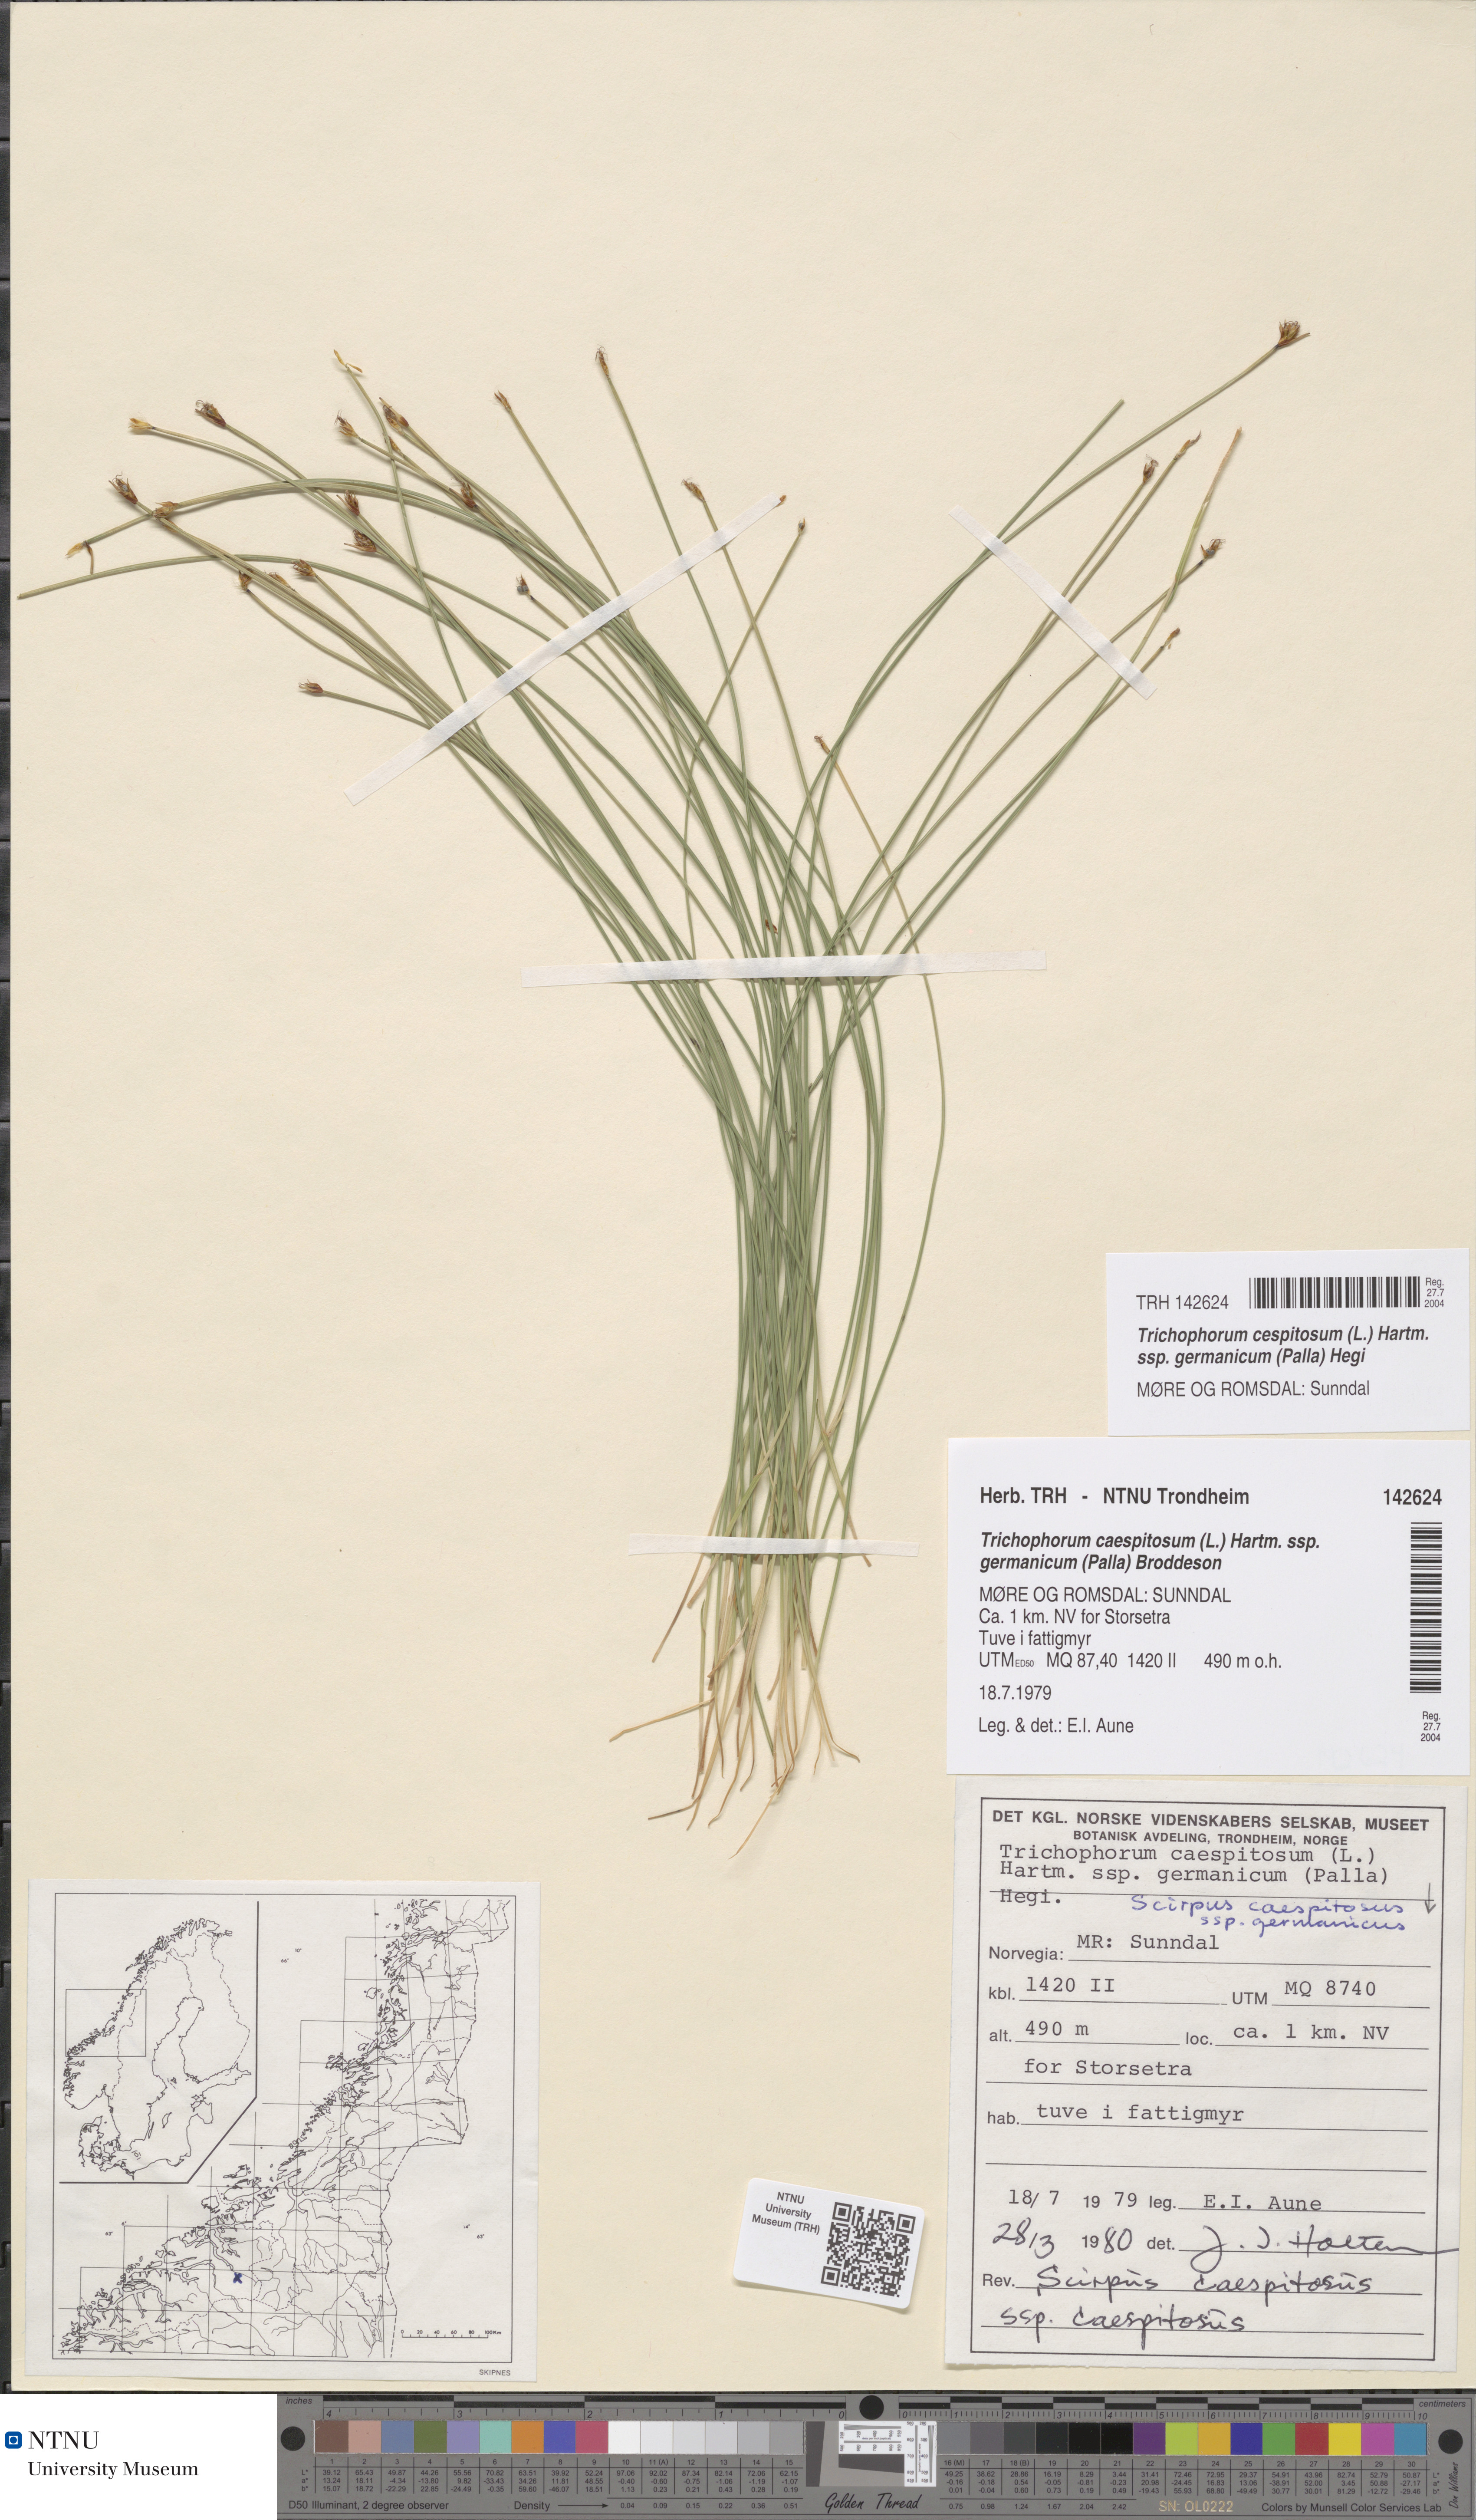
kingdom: Plantae
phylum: Tracheophyta
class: Liliopsida
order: Poales
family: Cyperaceae
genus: Trichophorum
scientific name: Trichophorum cespitosum
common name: Cespitose bulrush
